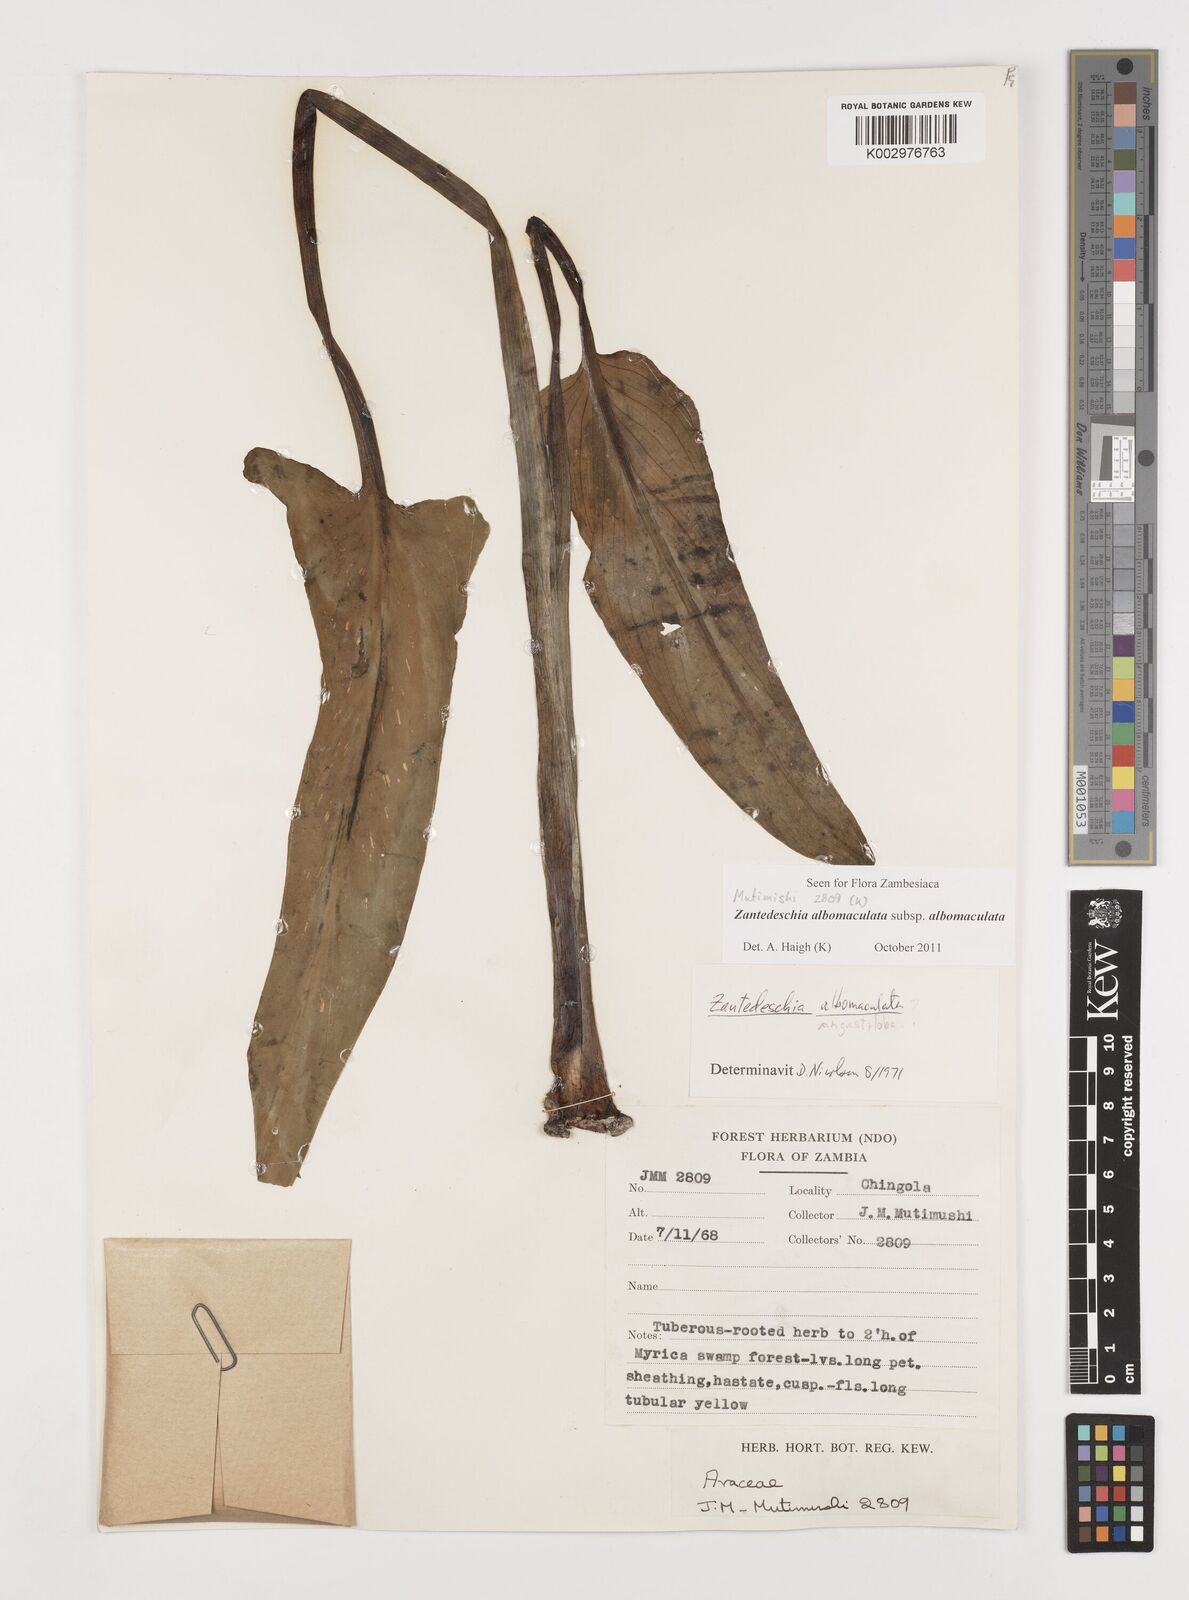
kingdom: Plantae
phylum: Tracheophyta
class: Liliopsida
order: Alismatales
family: Araceae
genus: Zantedeschia
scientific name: Zantedeschia albomaculata
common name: Spotted calla lily
